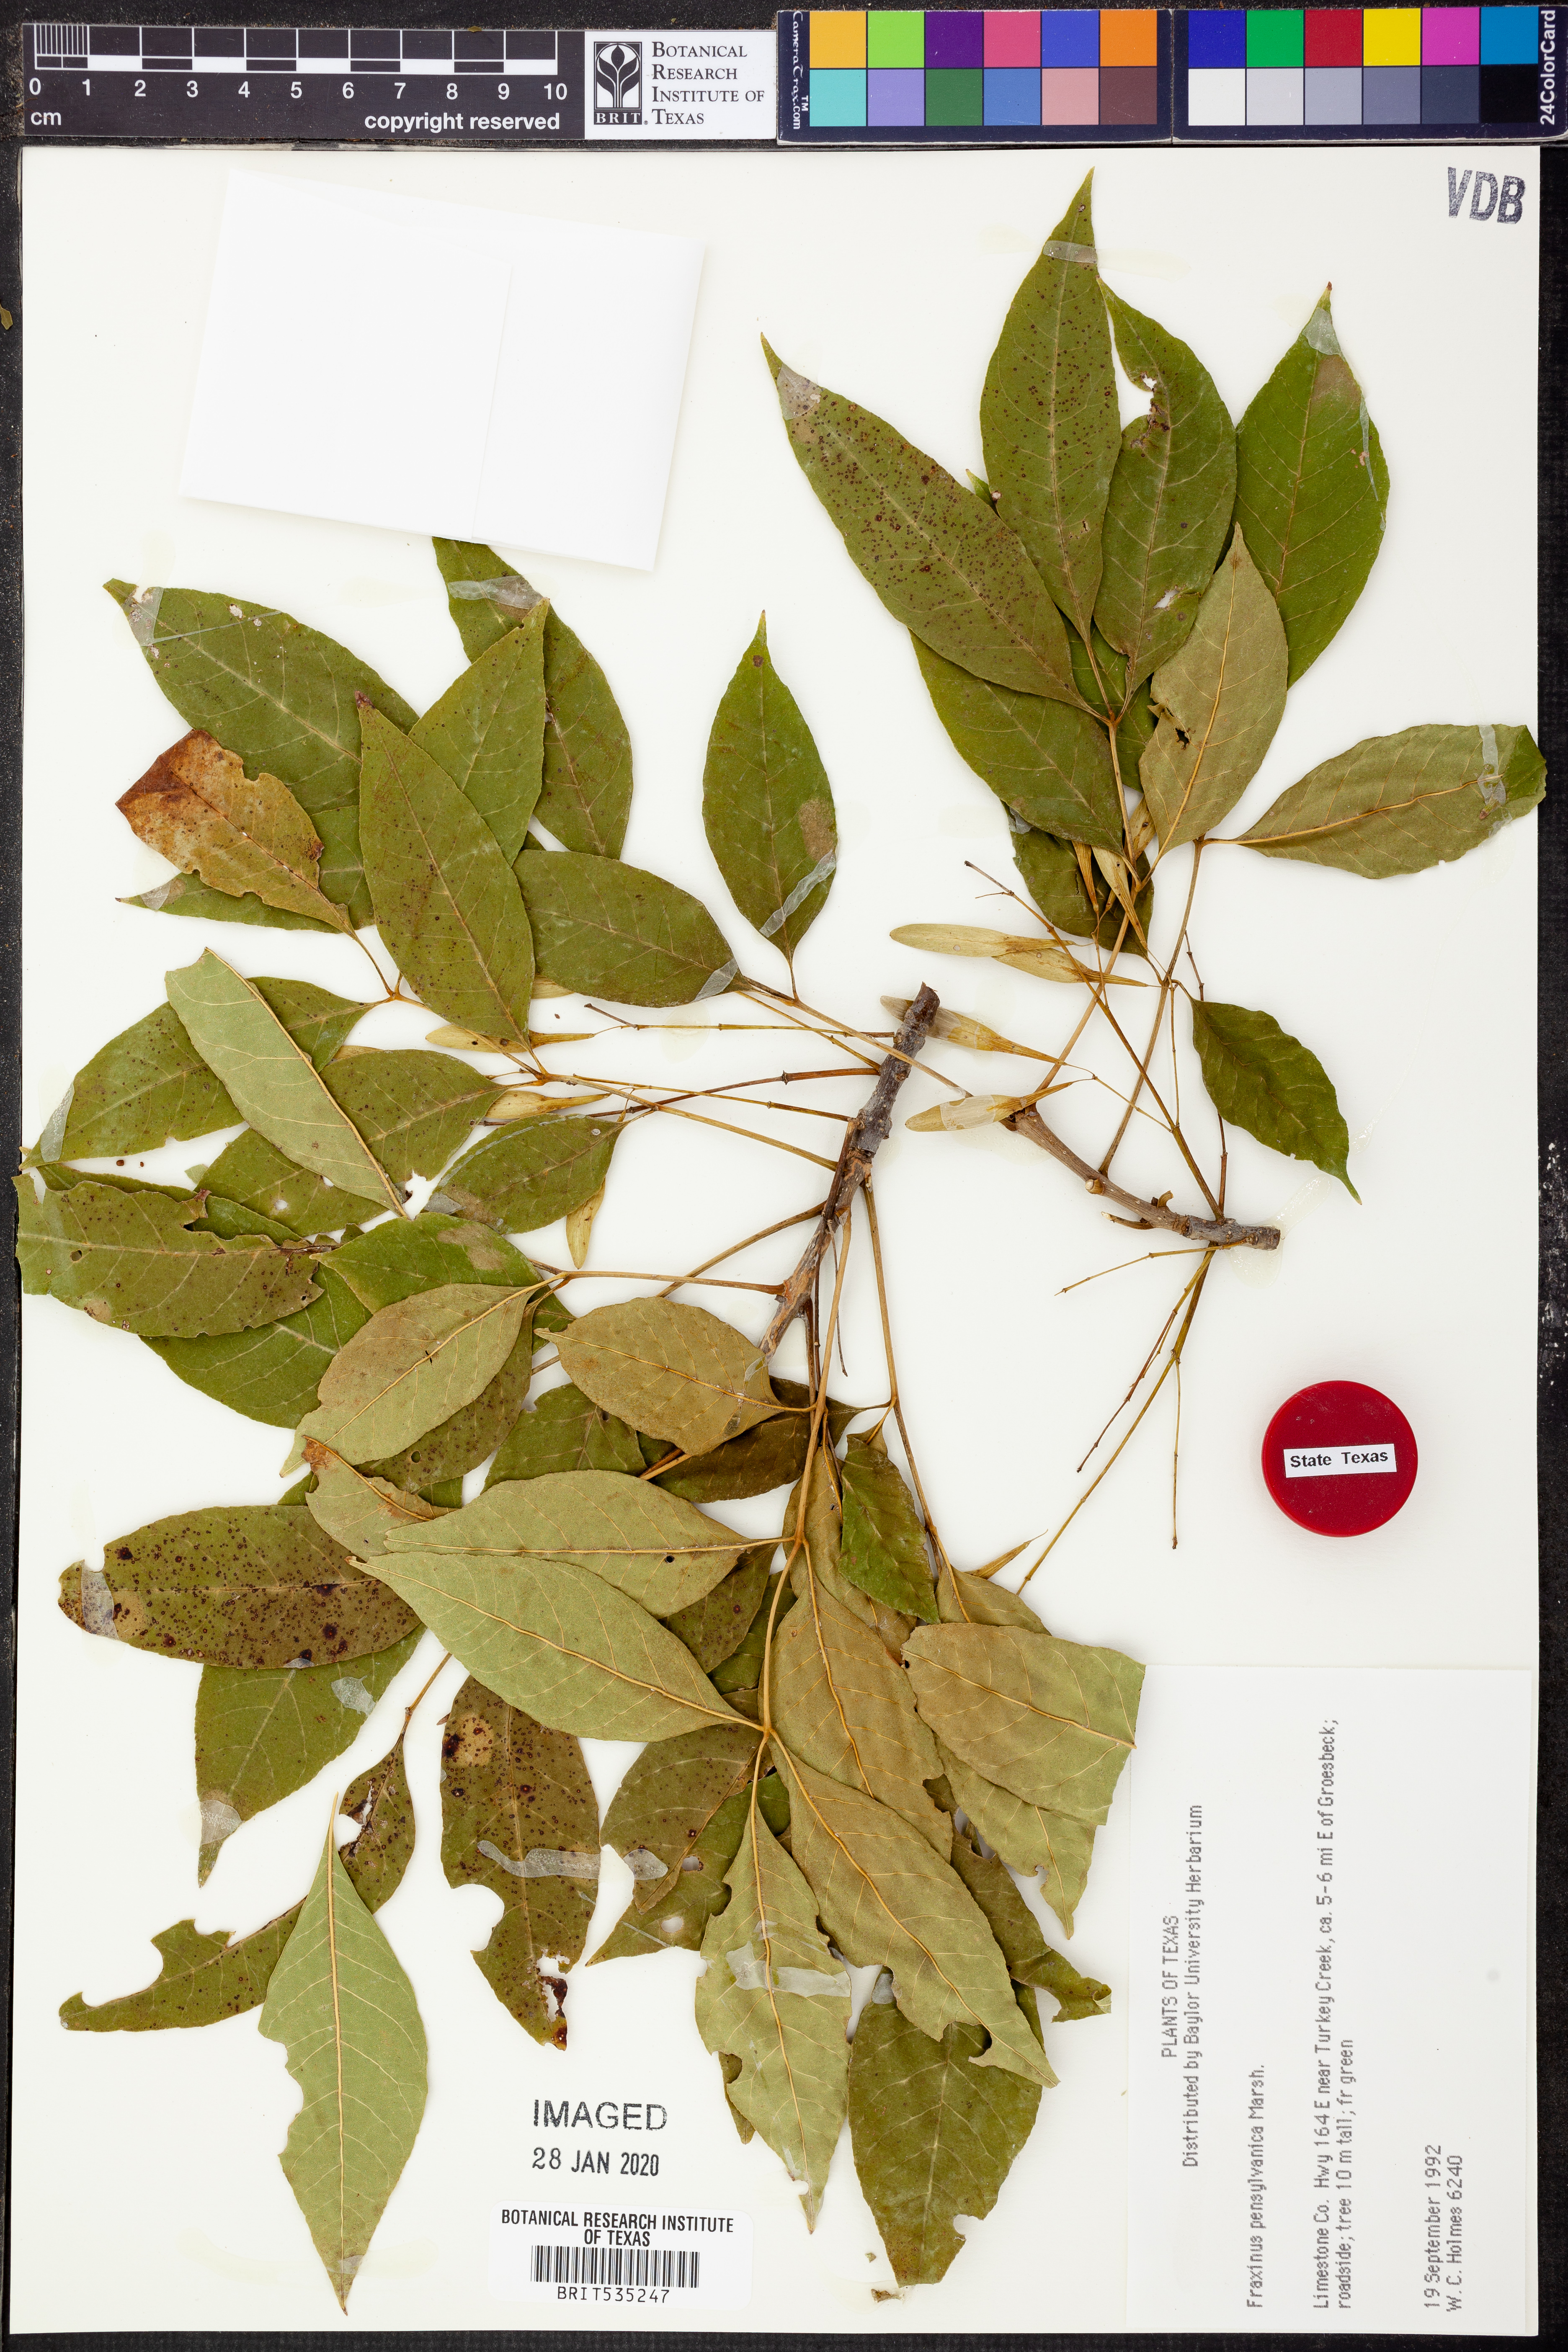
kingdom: Plantae
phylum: Tracheophyta
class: Magnoliopsida
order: Lamiales
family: Oleaceae
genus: Fraxinus
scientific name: Fraxinus pennsylvanica
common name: Green ash
